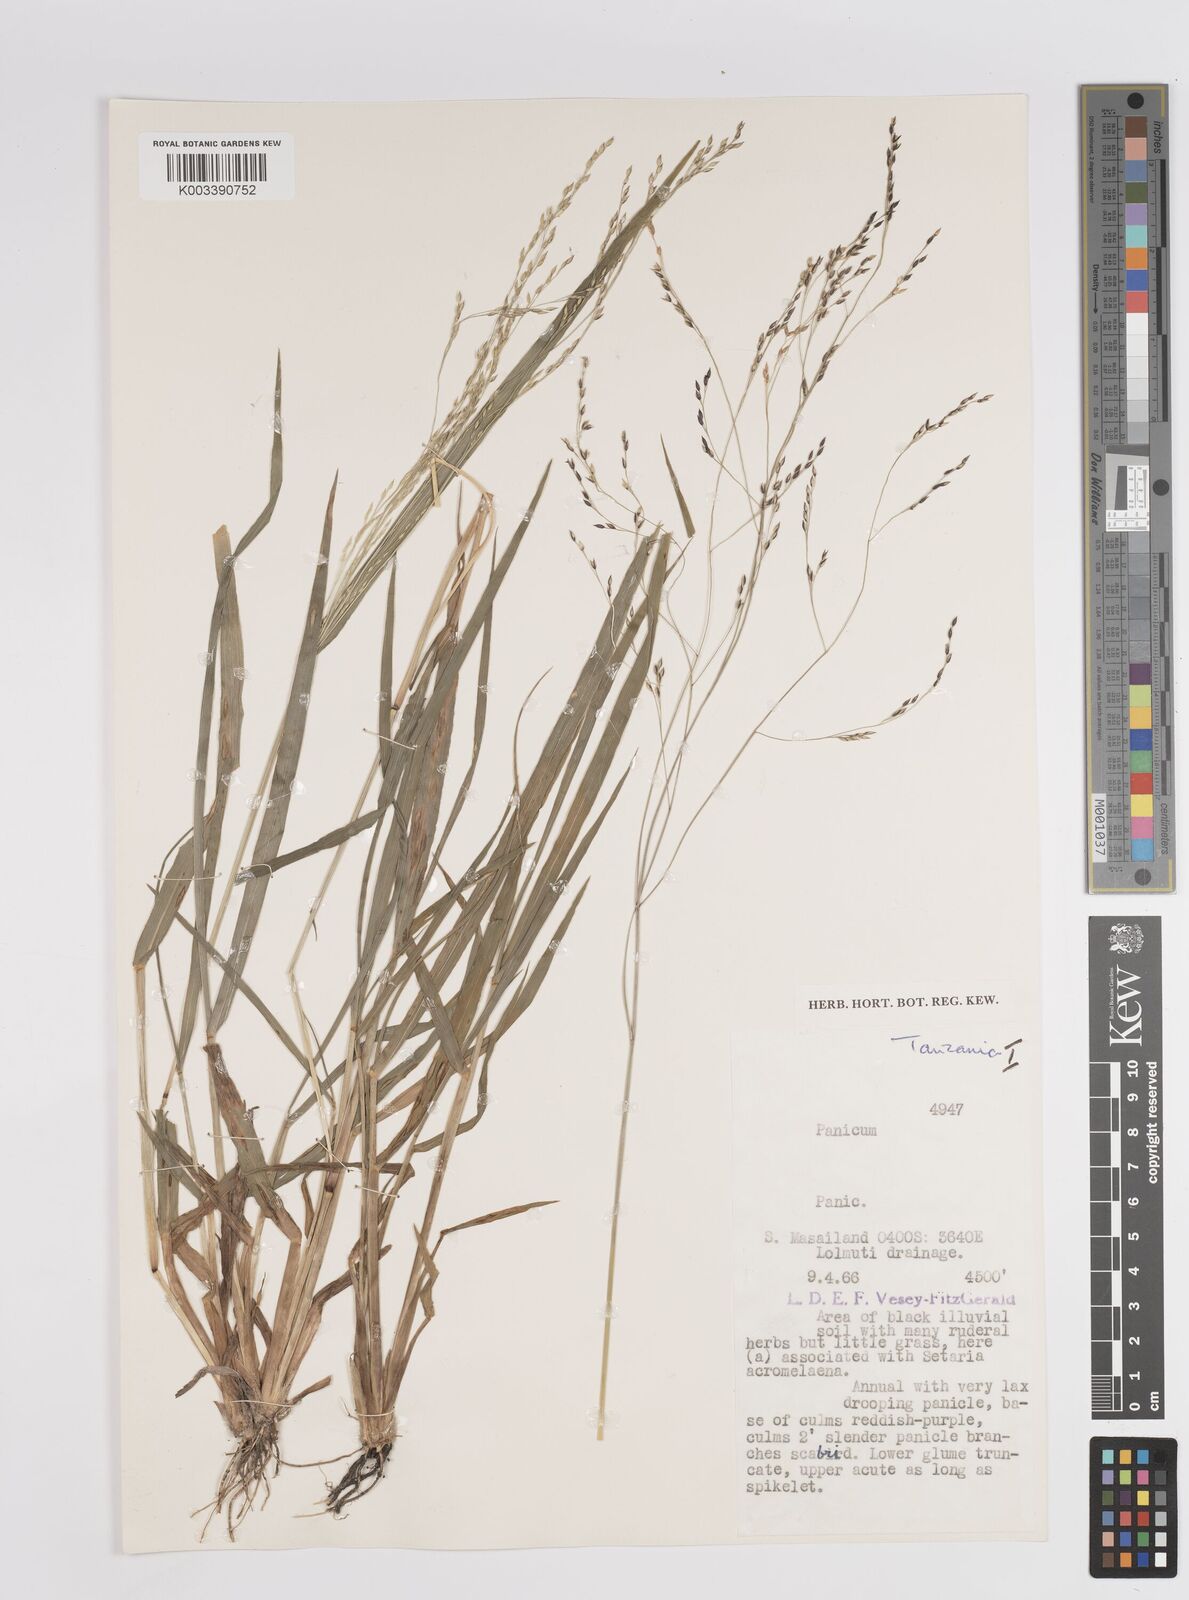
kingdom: Plantae
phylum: Tracheophyta
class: Liliopsida
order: Poales
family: Poaceae
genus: Panicum
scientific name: Panicum porphyrrhizos
